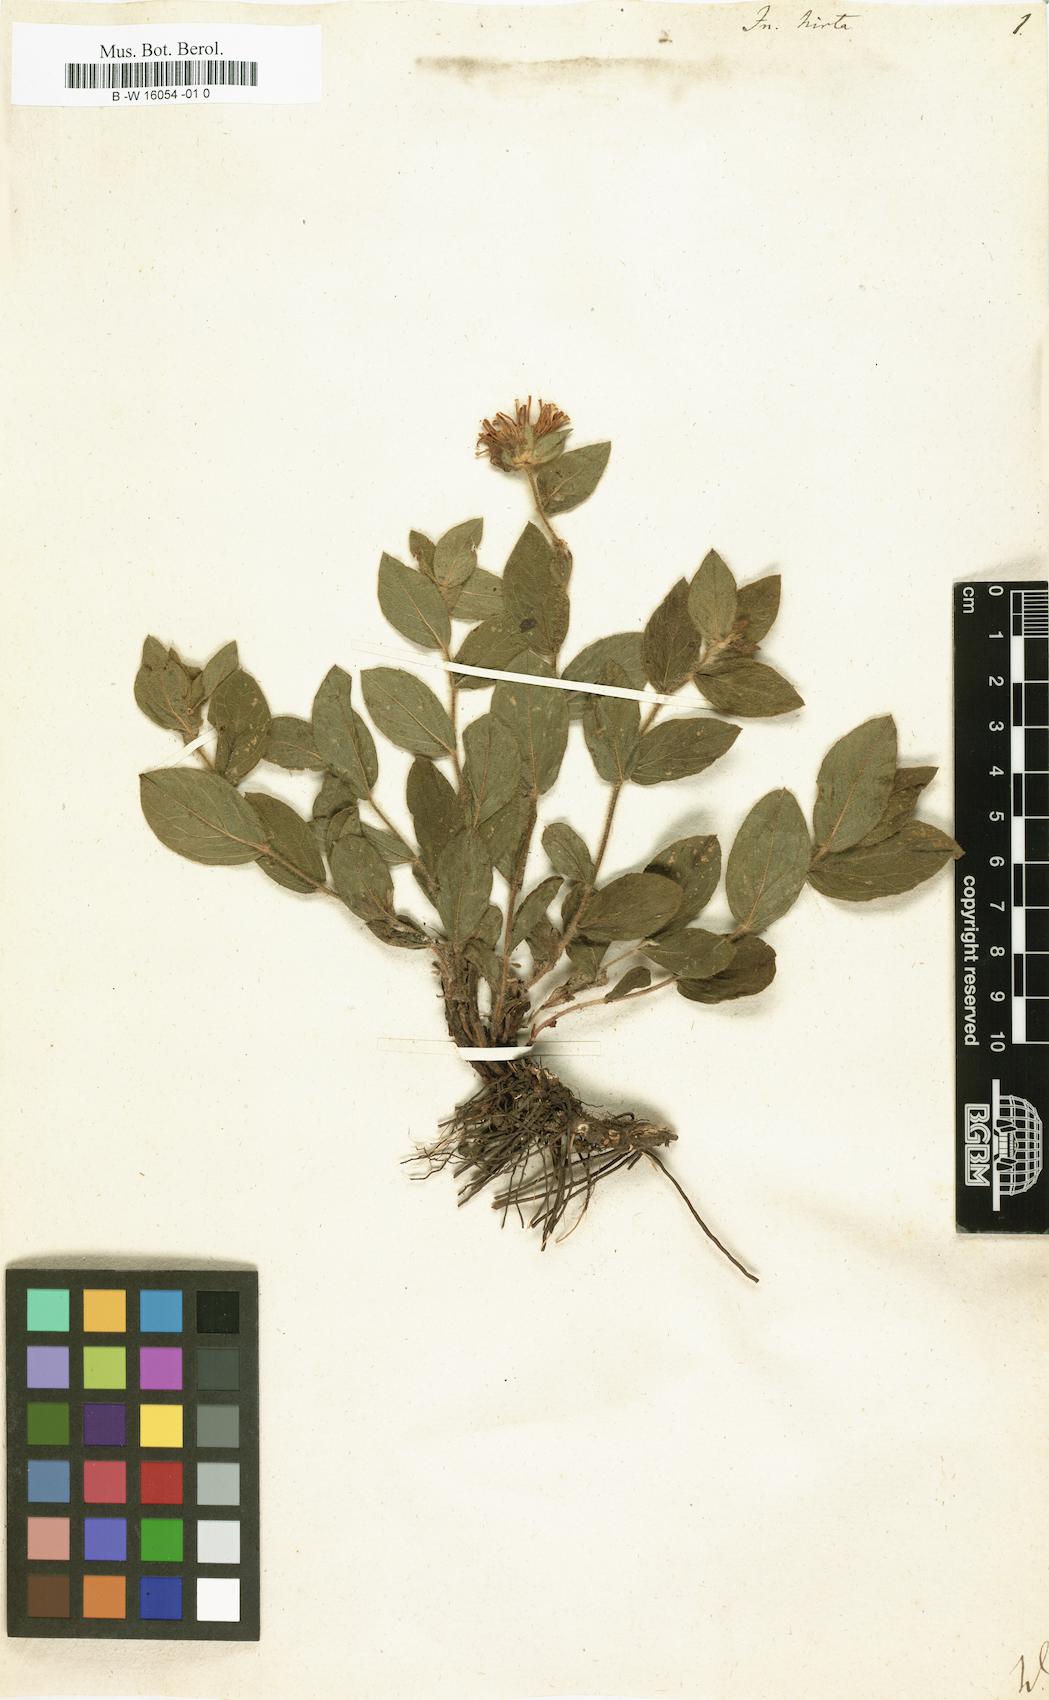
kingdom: Plantae
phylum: Tracheophyta
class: Magnoliopsida
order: Asterales
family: Asteraceae
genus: Pentanema
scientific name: Pentanema hirtum
